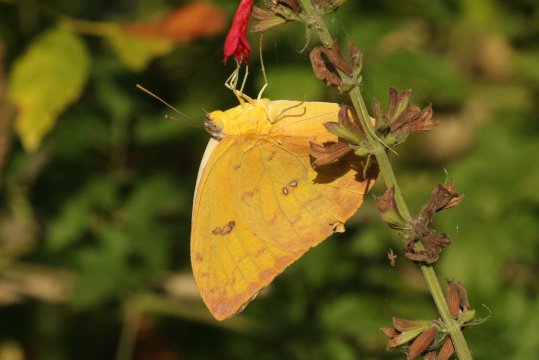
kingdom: Animalia
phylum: Arthropoda
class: Insecta
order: Lepidoptera
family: Pieridae
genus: Phoebis
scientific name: Phoebis philea
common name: Orange-barred Sulphur
